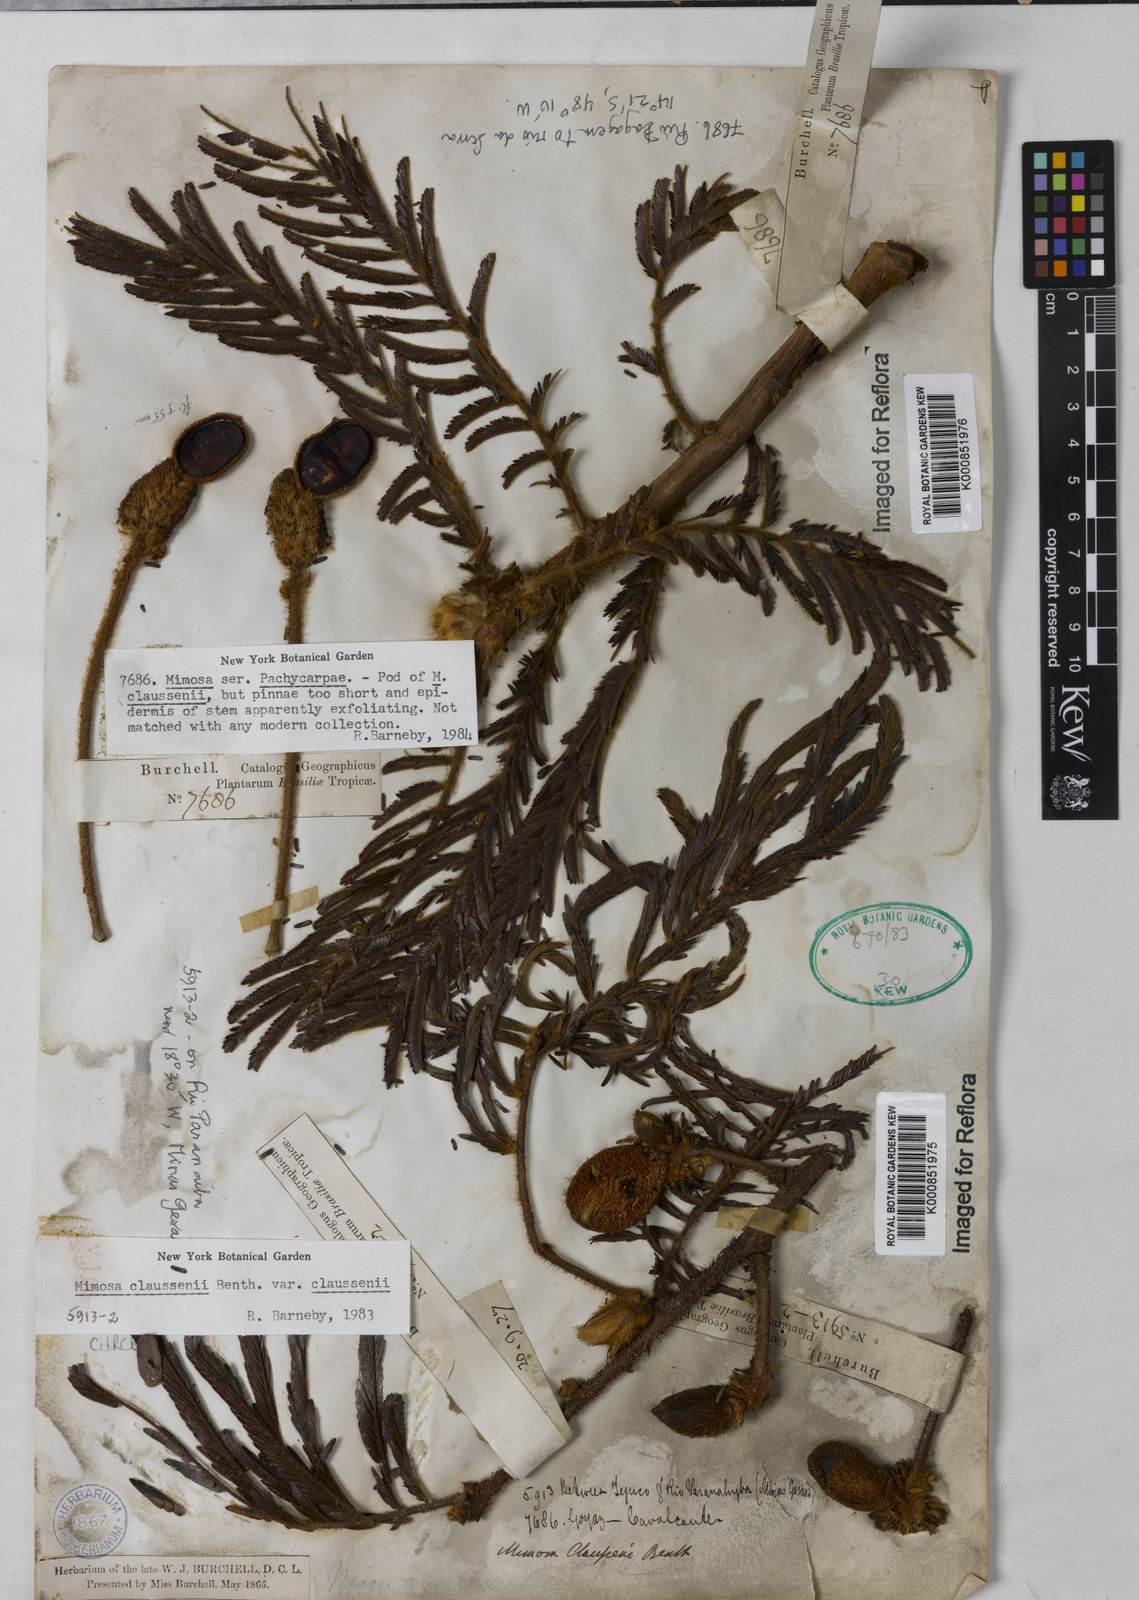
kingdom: Plantae
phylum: Tracheophyta
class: Magnoliopsida
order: Fabales
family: Fabaceae
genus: Mimosa
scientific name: Mimosa claussenii
